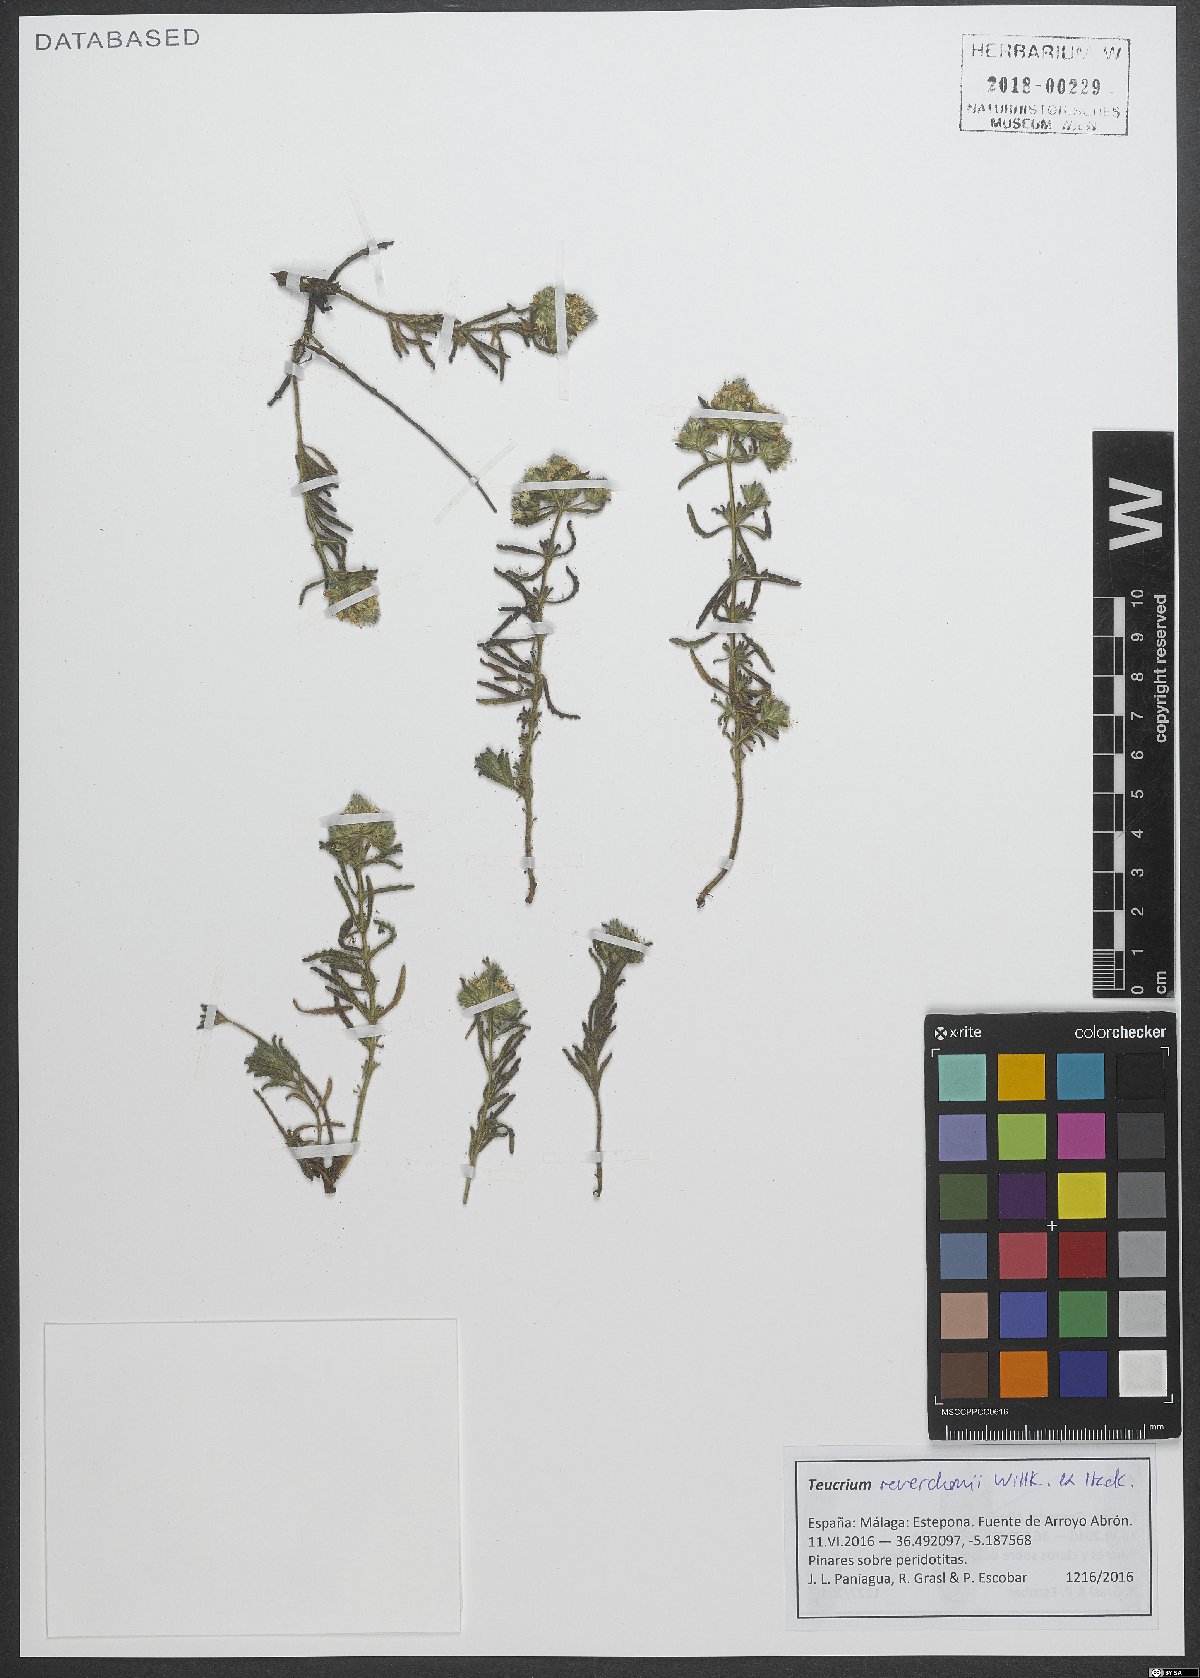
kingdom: Plantae
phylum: Tracheophyta
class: Magnoliopsida
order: Lamiales
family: Lamiaceae
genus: Teucrium
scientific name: Teucrium chlorocephalum
